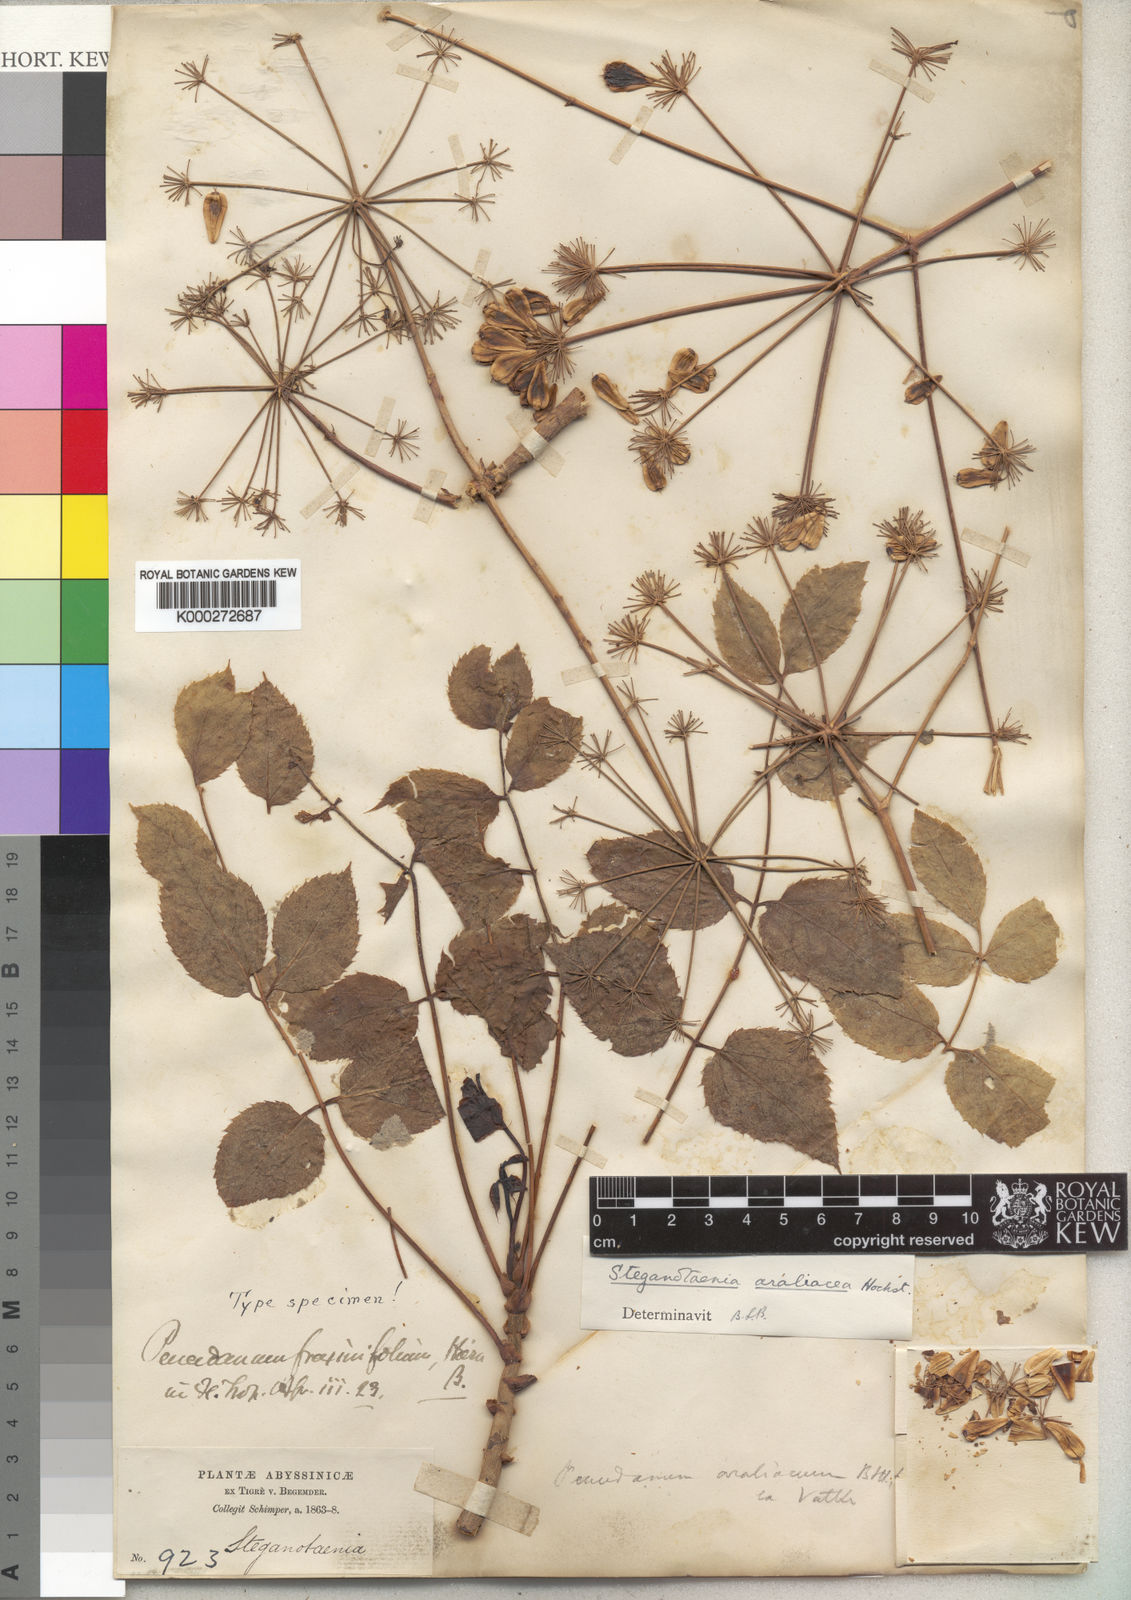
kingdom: Plantae
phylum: Tracheophyta
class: Magnoliopsida
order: Apiales
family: Apiaceae
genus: Steganotaenia
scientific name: Steganotaenia araliacea
